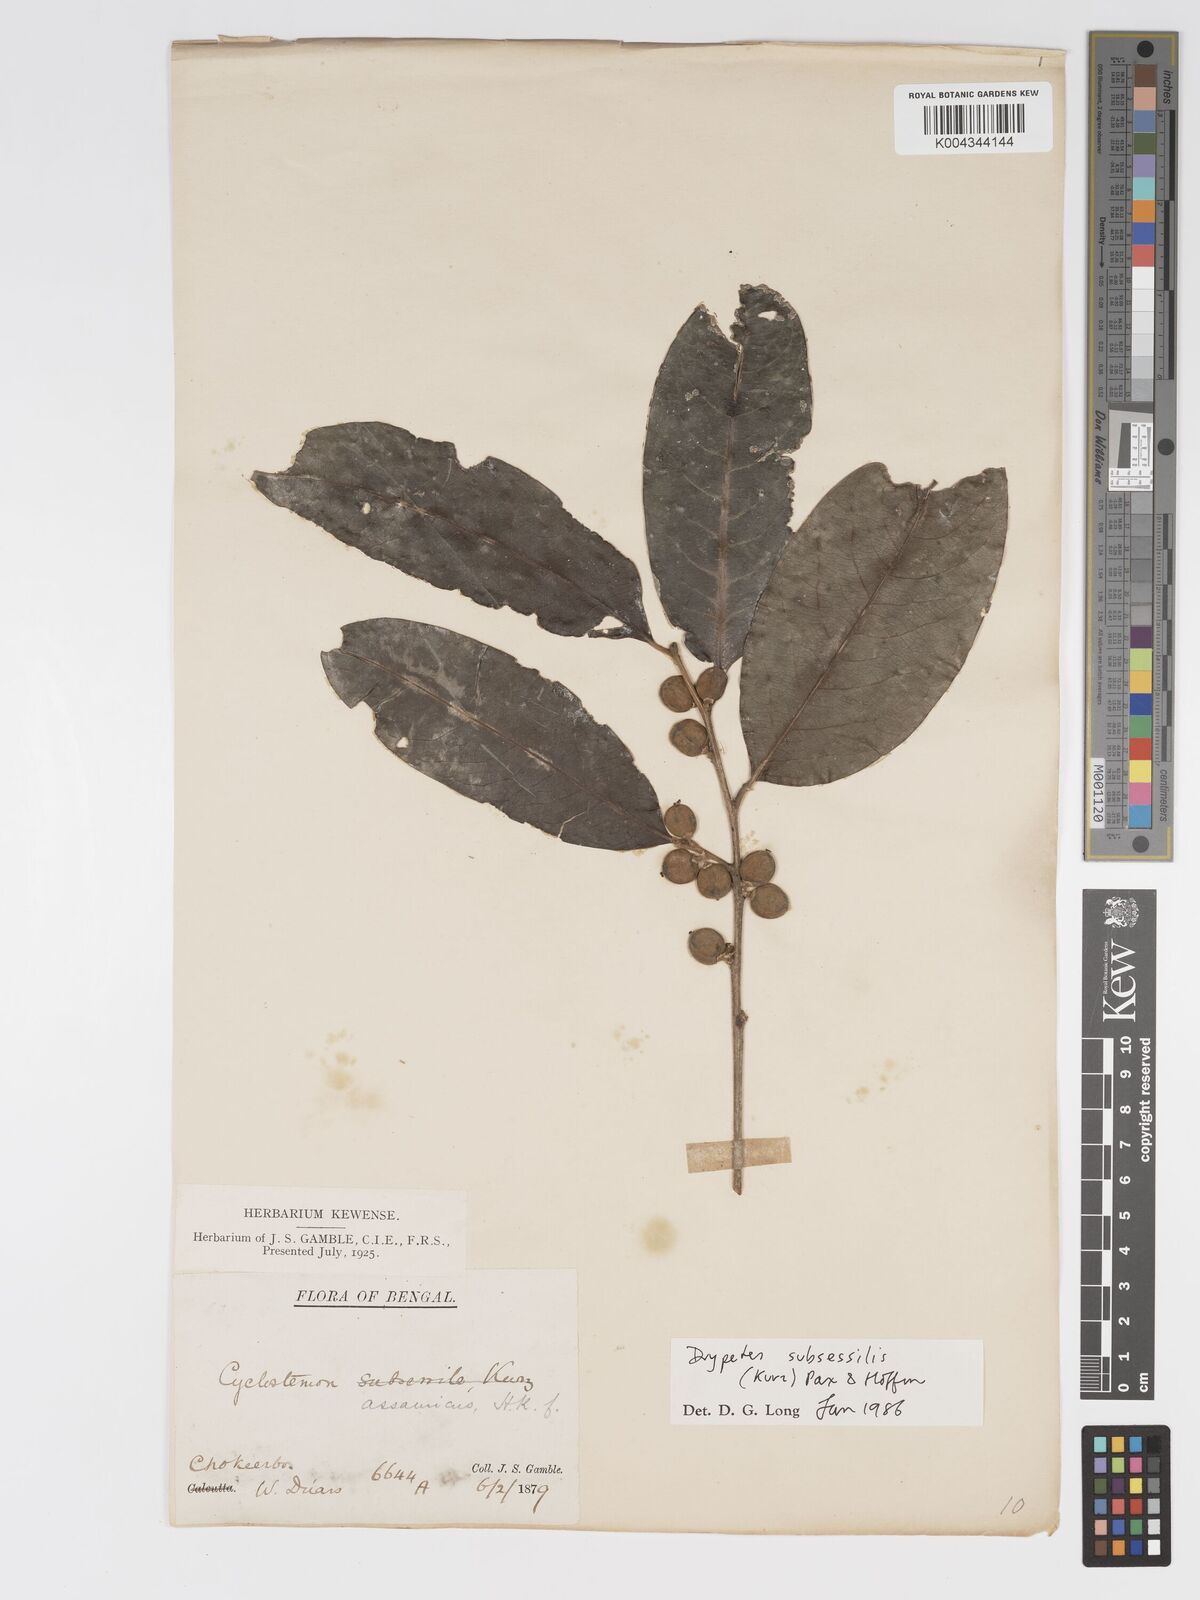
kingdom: Plantae
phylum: Tracheophyta
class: Magnoliopsida
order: Malpighiales
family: Putranjivaceae
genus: Drypetes
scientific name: Drypetes subsessilis
